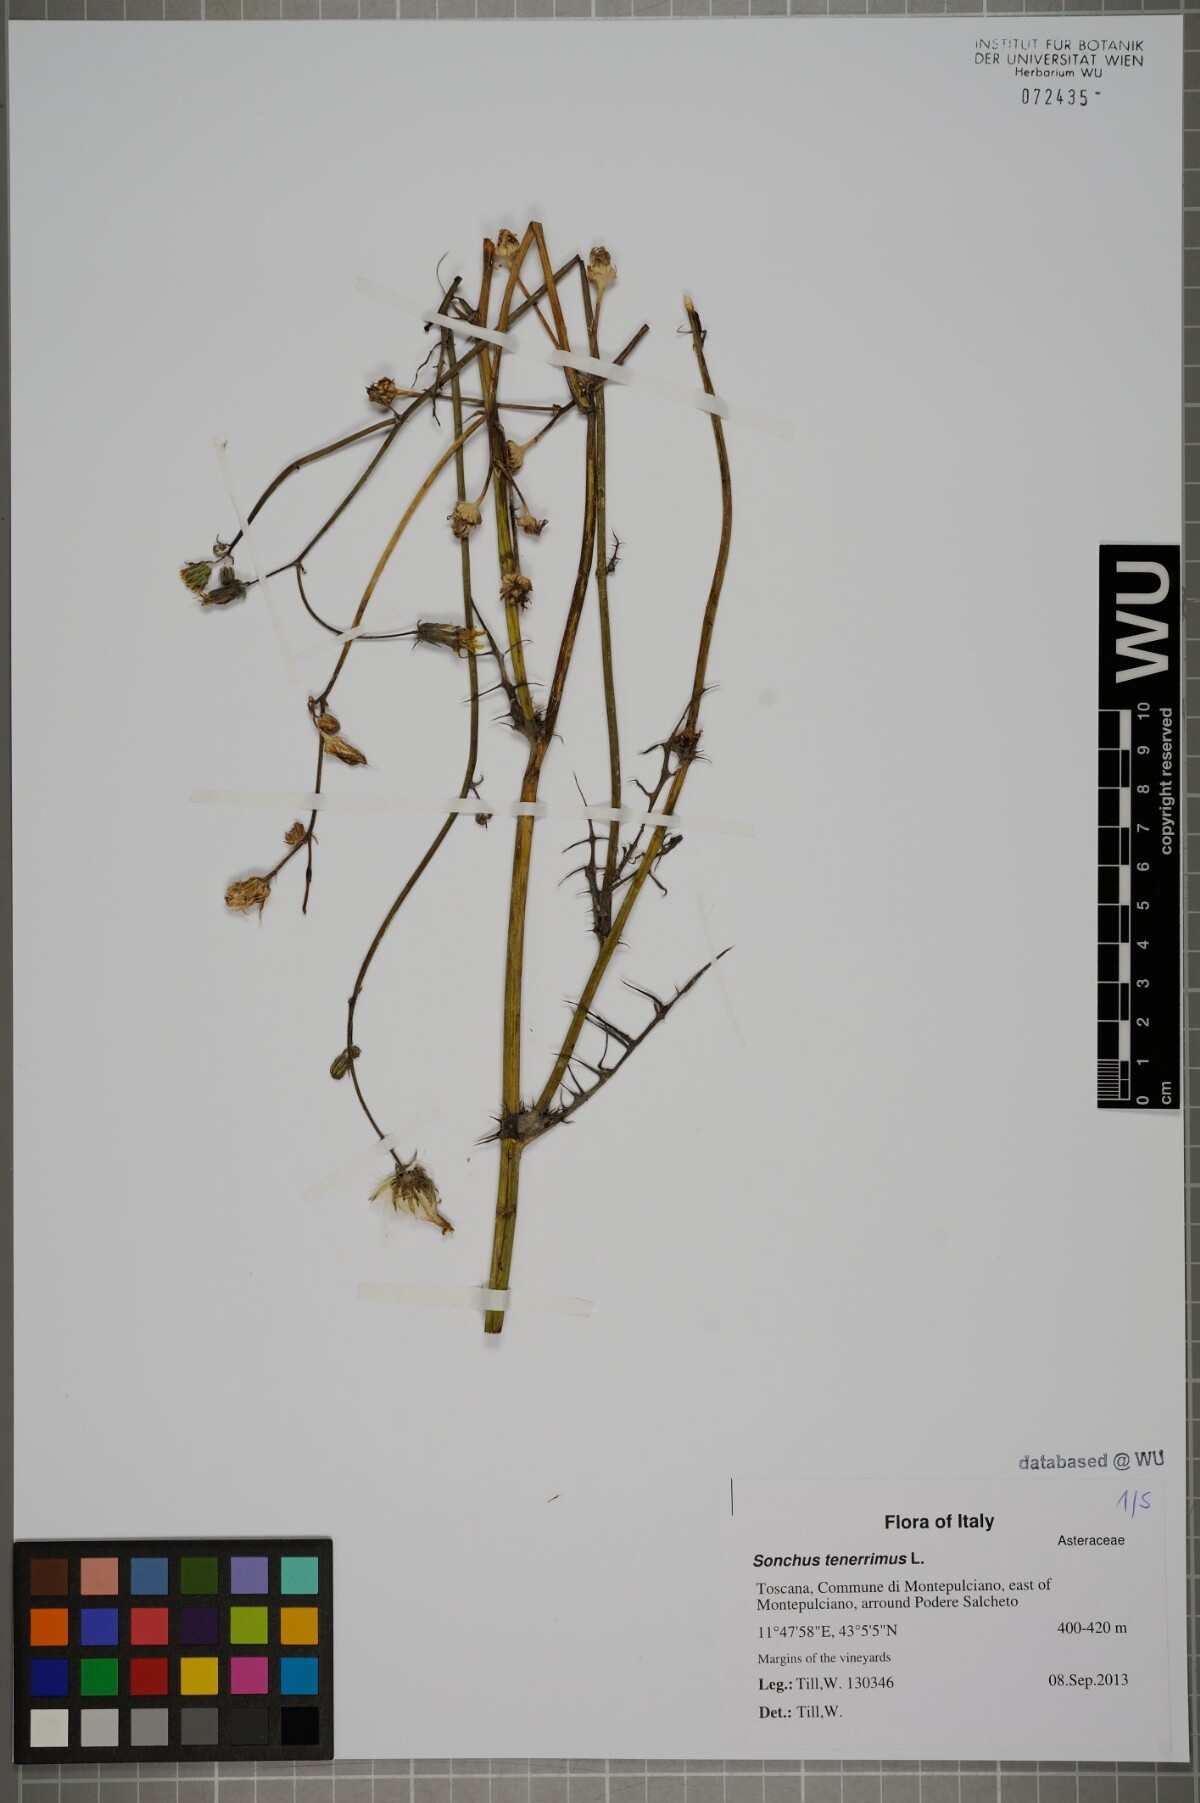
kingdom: Plantae
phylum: Tracheophyta
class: Magnoliopsida
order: Asterales
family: Asteraceae
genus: Sonchus
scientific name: Sonchus tenerrimus
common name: Clammy sowthistle
